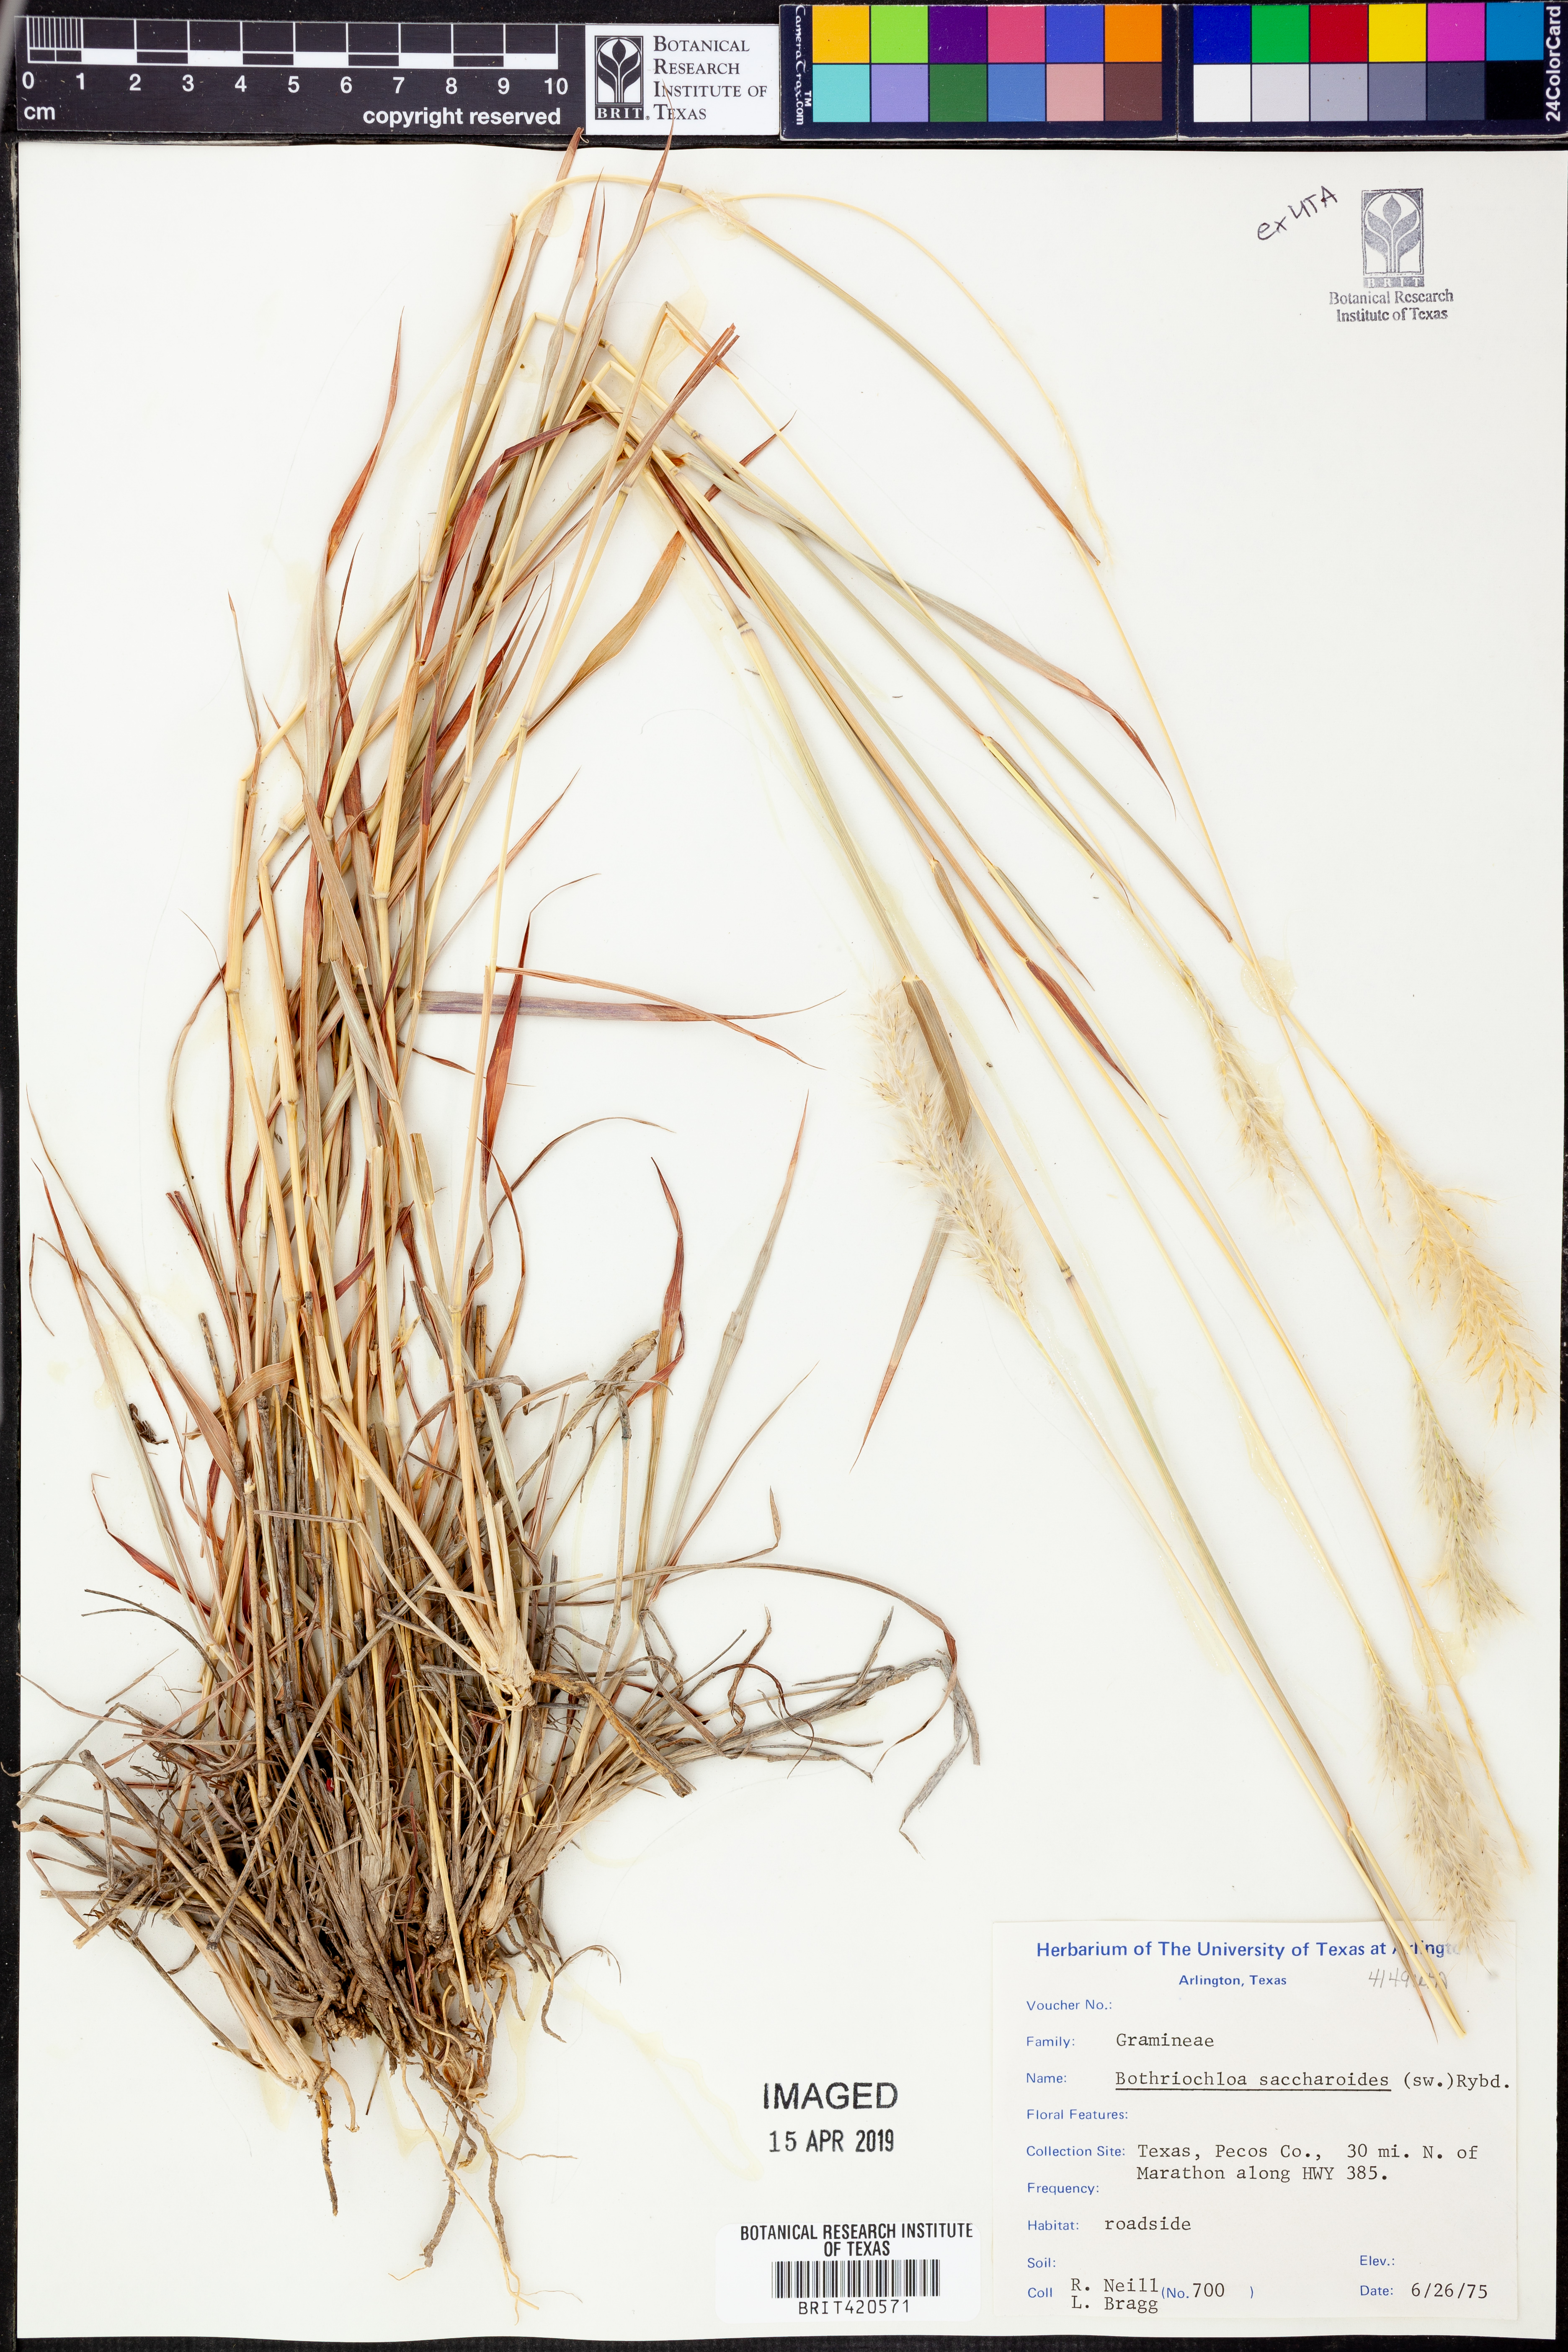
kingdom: Plantae
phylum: Tracheophyta
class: Liliopsida
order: Poales
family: Poaceae
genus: Bothriochloa
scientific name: Bothriochloa saccharoides
